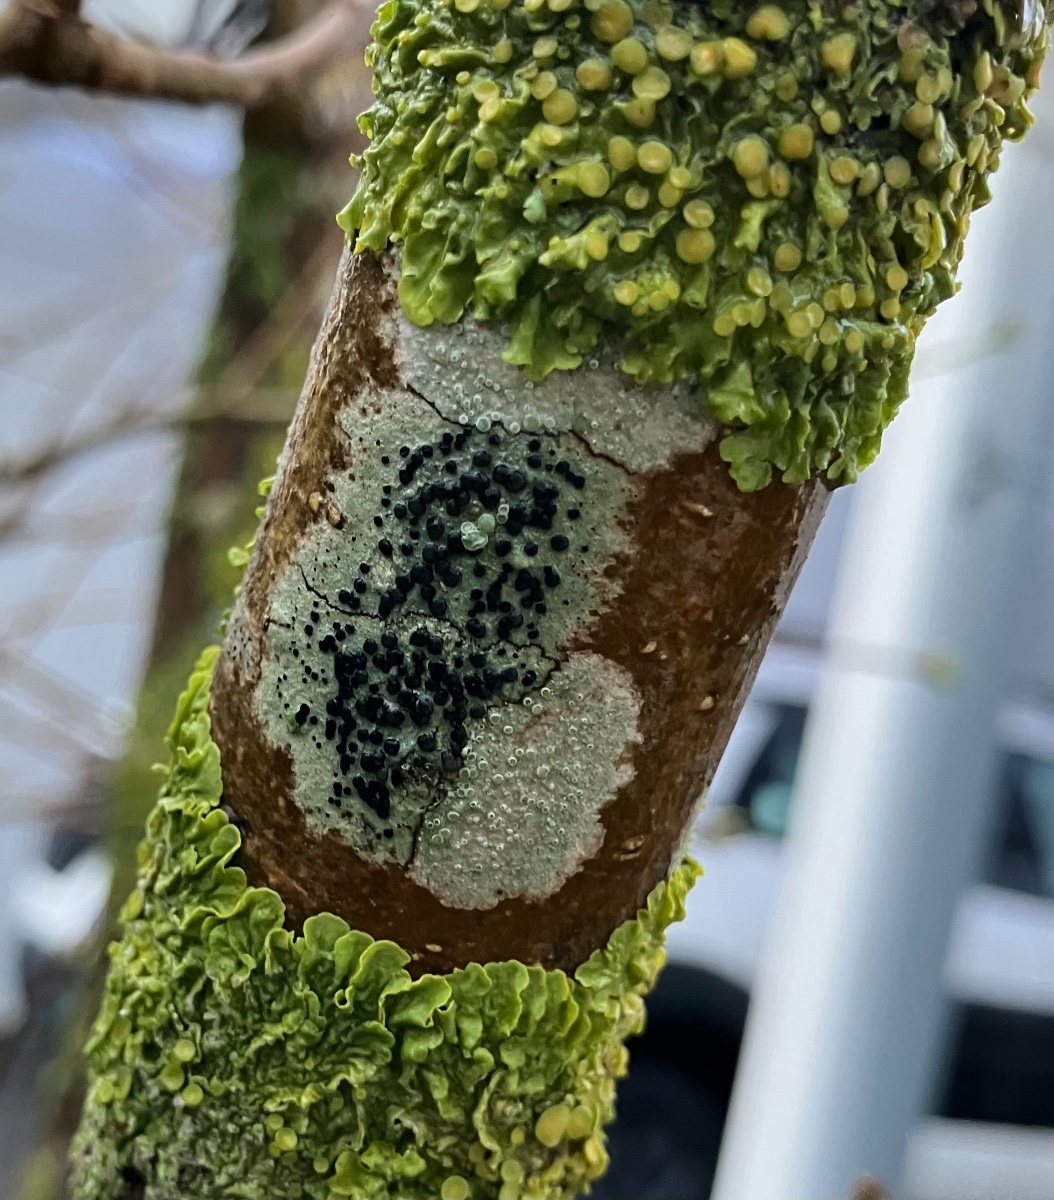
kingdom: Fungi
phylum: Ascomycota
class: Lecanoromycetes
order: Lecanorales
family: Lecanoraceae
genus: Lecidella
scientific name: Lecidella elaeochroma
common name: grågrøn skivelav
